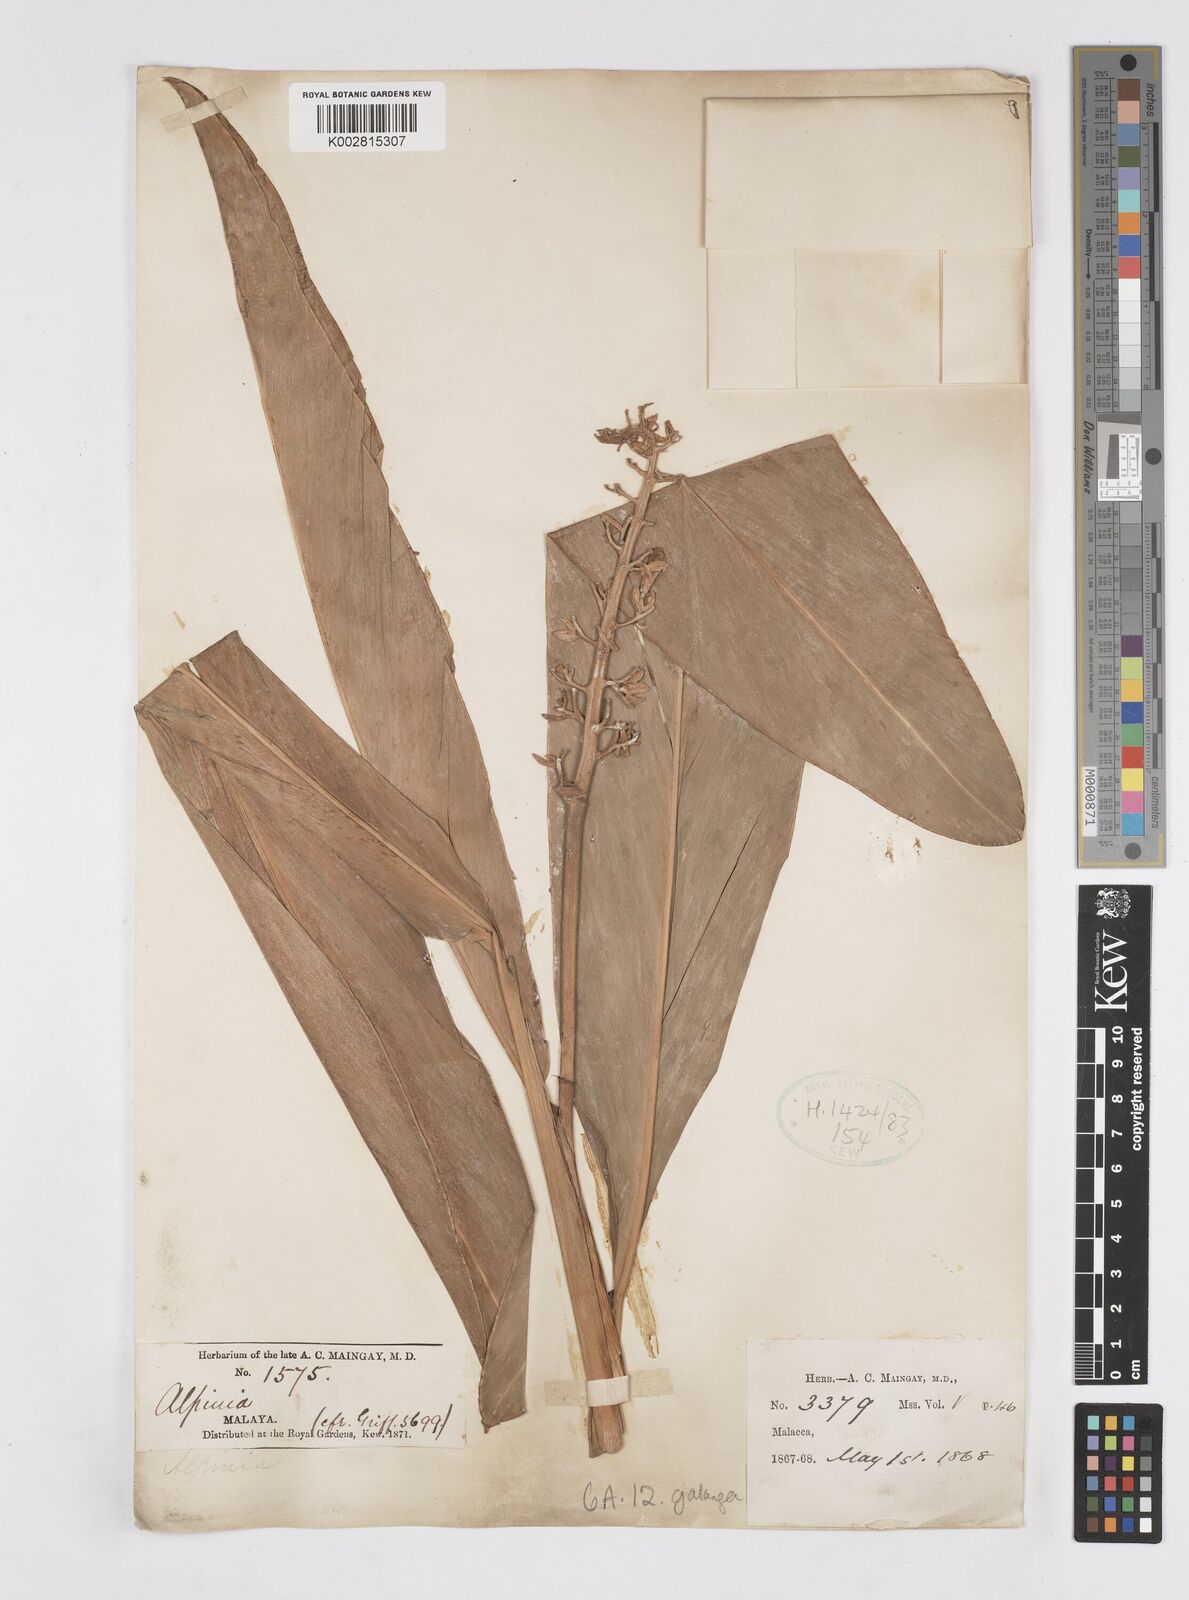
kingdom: Plantae
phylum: Tracheophyta
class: Liliopsida
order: Zingiberales
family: Zingiberaceae
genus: Alpinia
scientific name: Alpinia galanga
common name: Siamese-ginger
